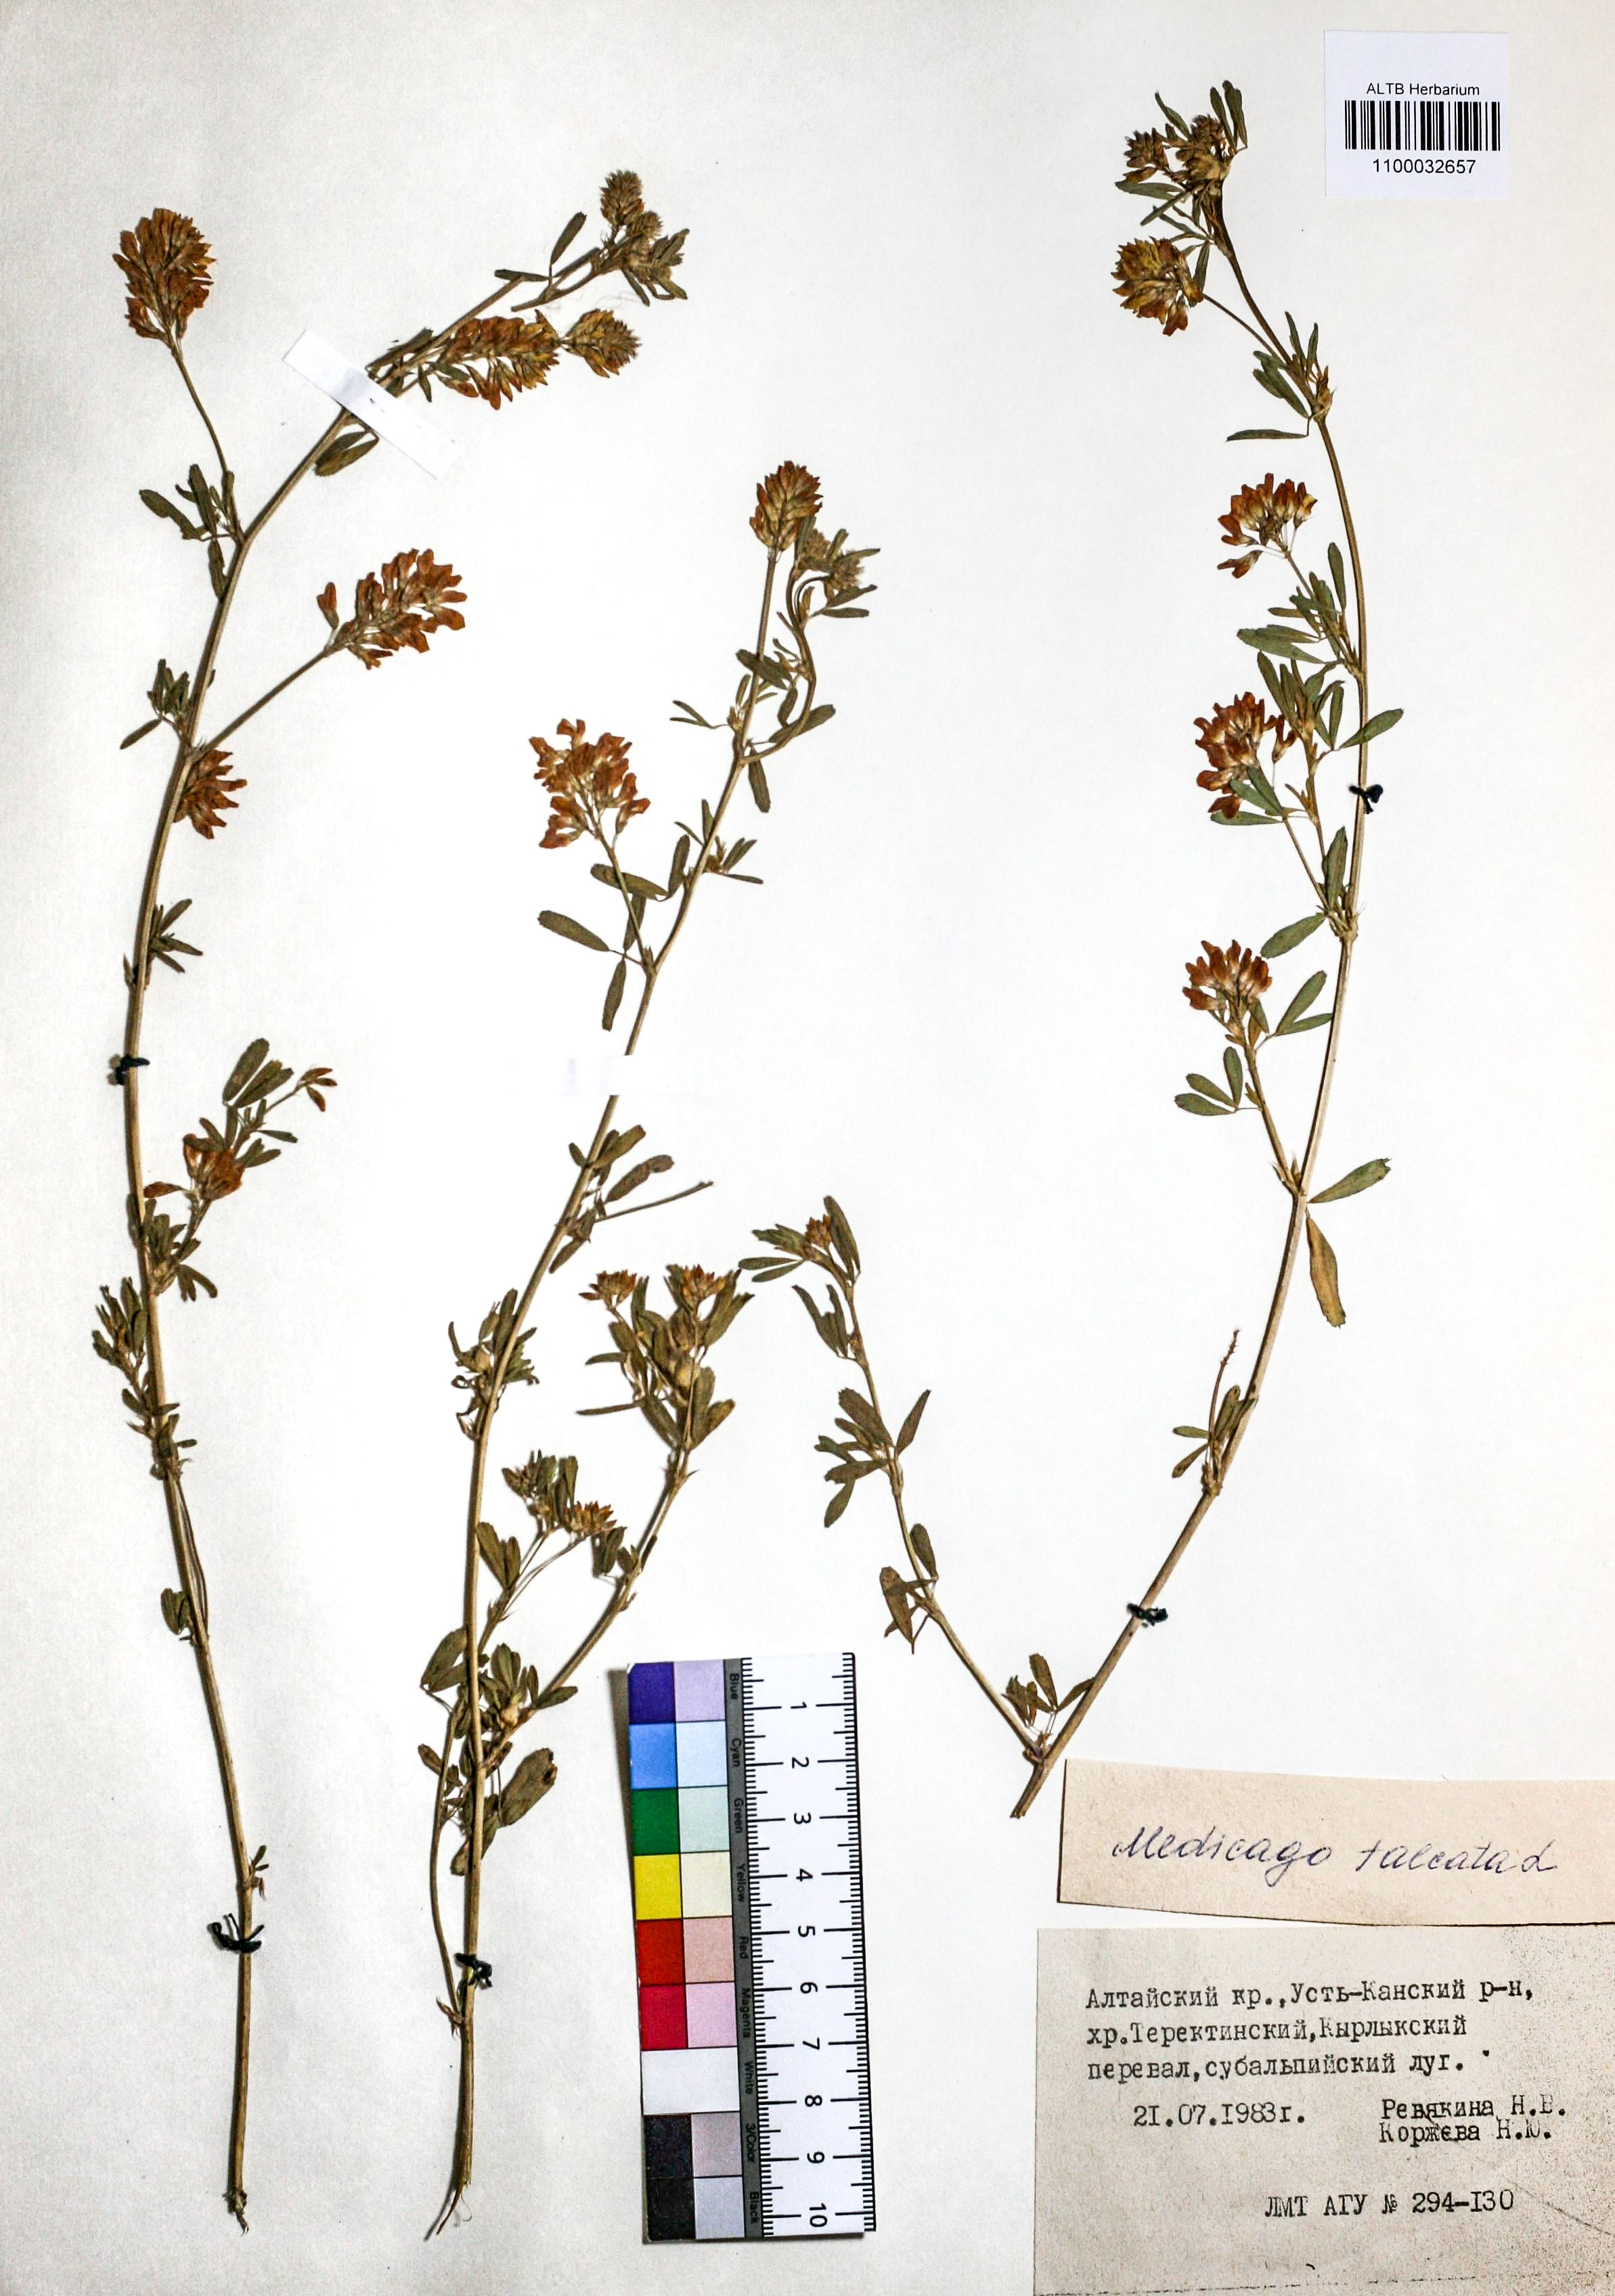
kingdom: Plantae
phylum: Tracheophyta
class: Magnoliopsida
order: Fabales
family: Fabaceae
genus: Medicago
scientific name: Medicago falcata
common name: Sickle medick
